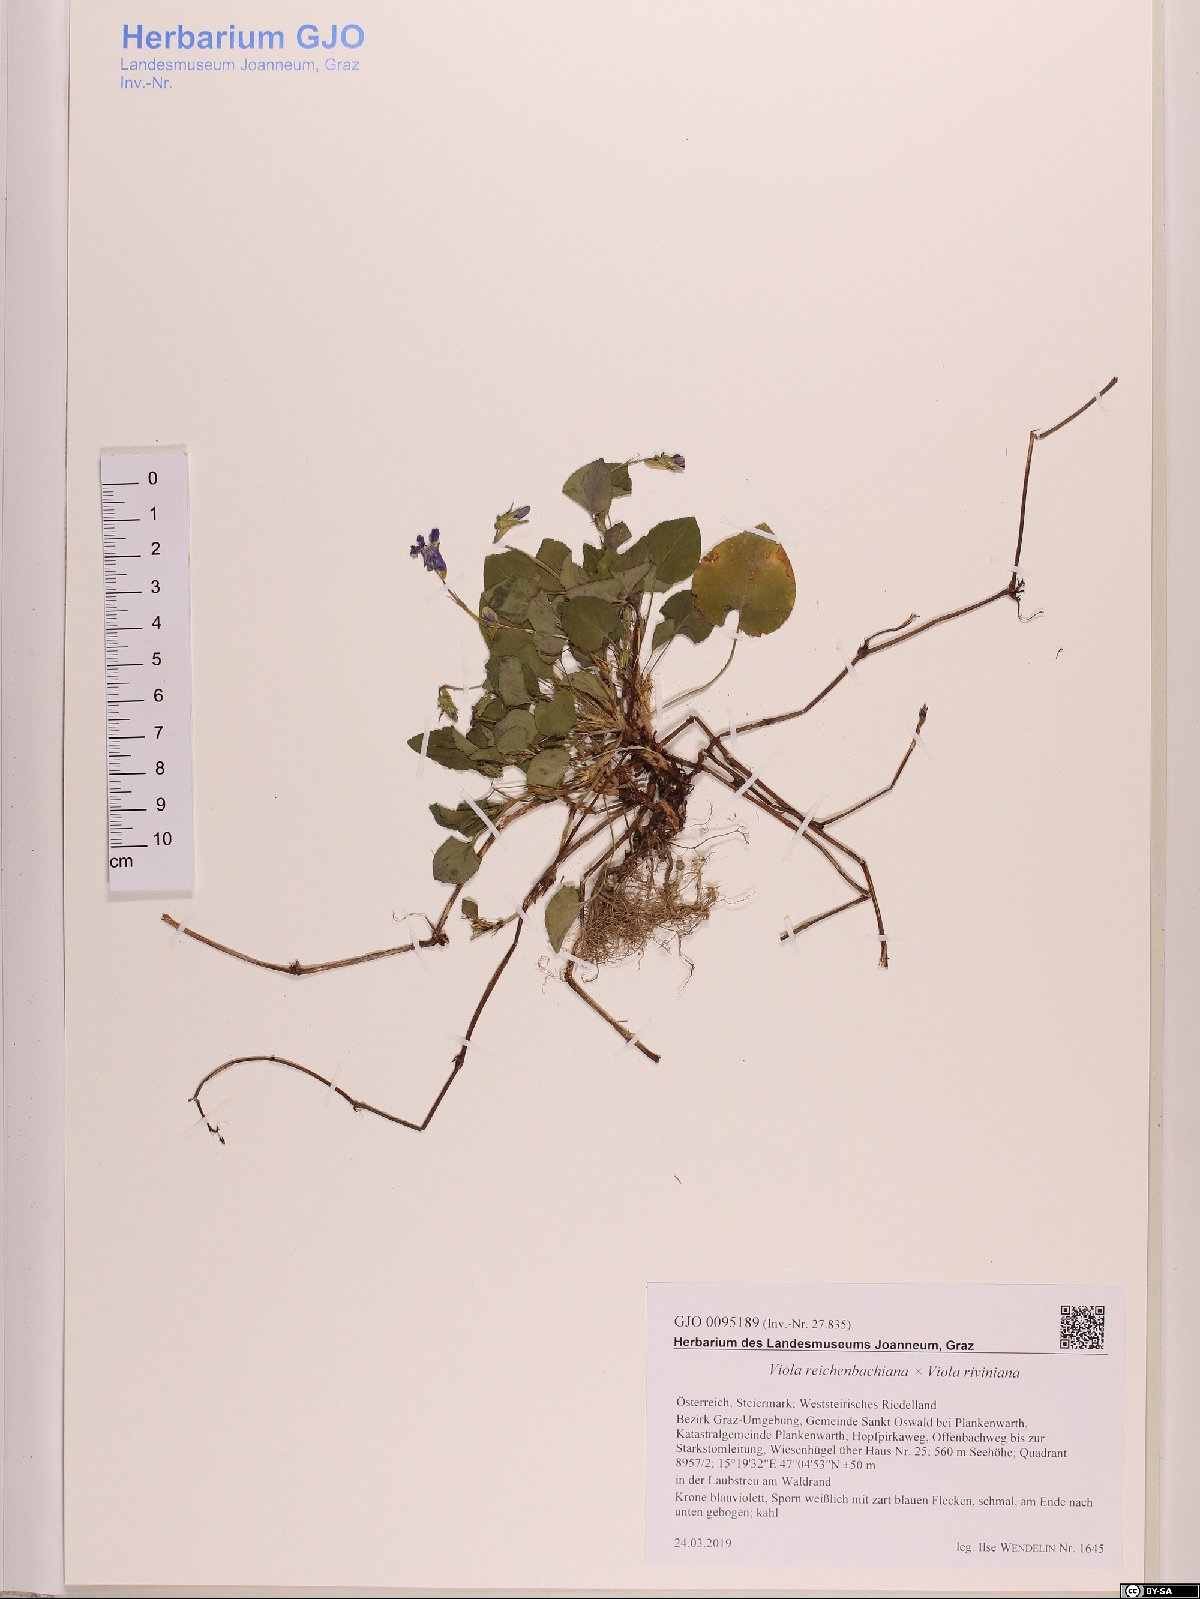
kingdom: Plantae
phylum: Tracheophyta
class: Magnoliopsida
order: Malpighiales
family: Violaceae
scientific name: Violaceae
